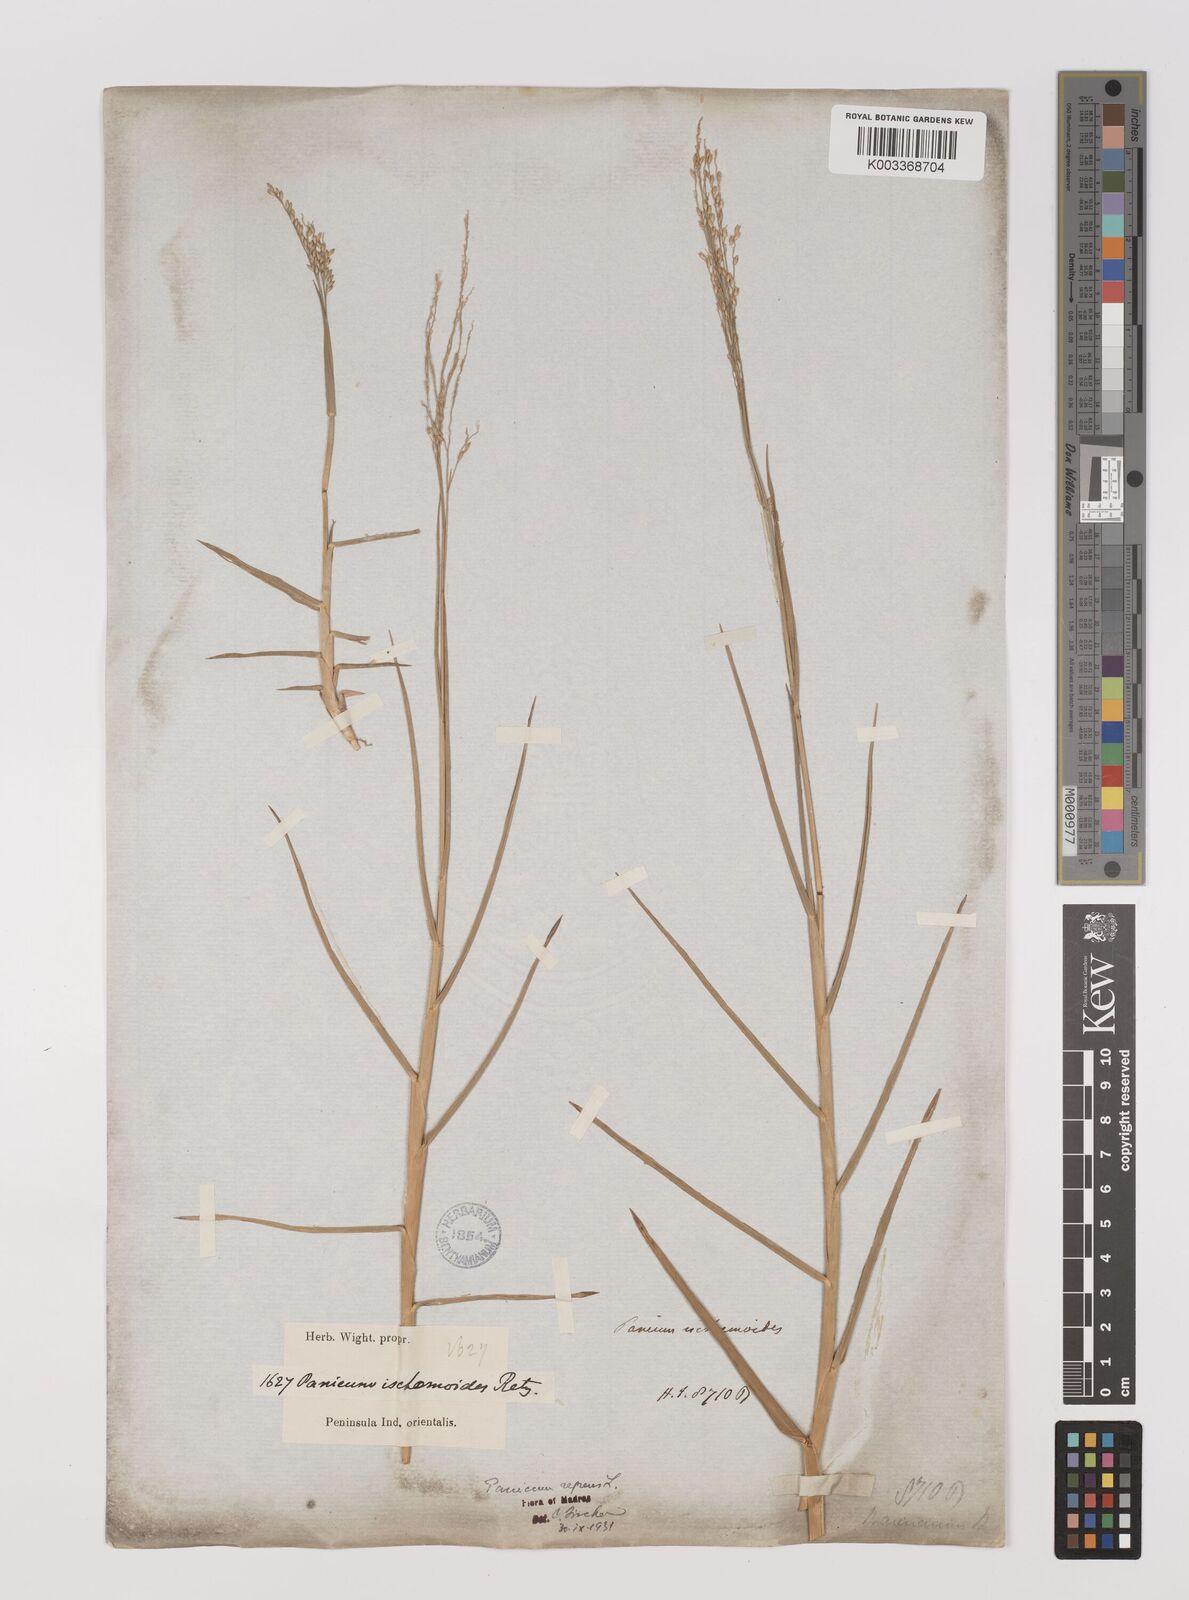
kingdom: Plantae
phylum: Tracheophyta
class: Liliopsida
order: Poales
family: Poaceae
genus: Panicum
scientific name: Panicum repens
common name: Torpedo grass
